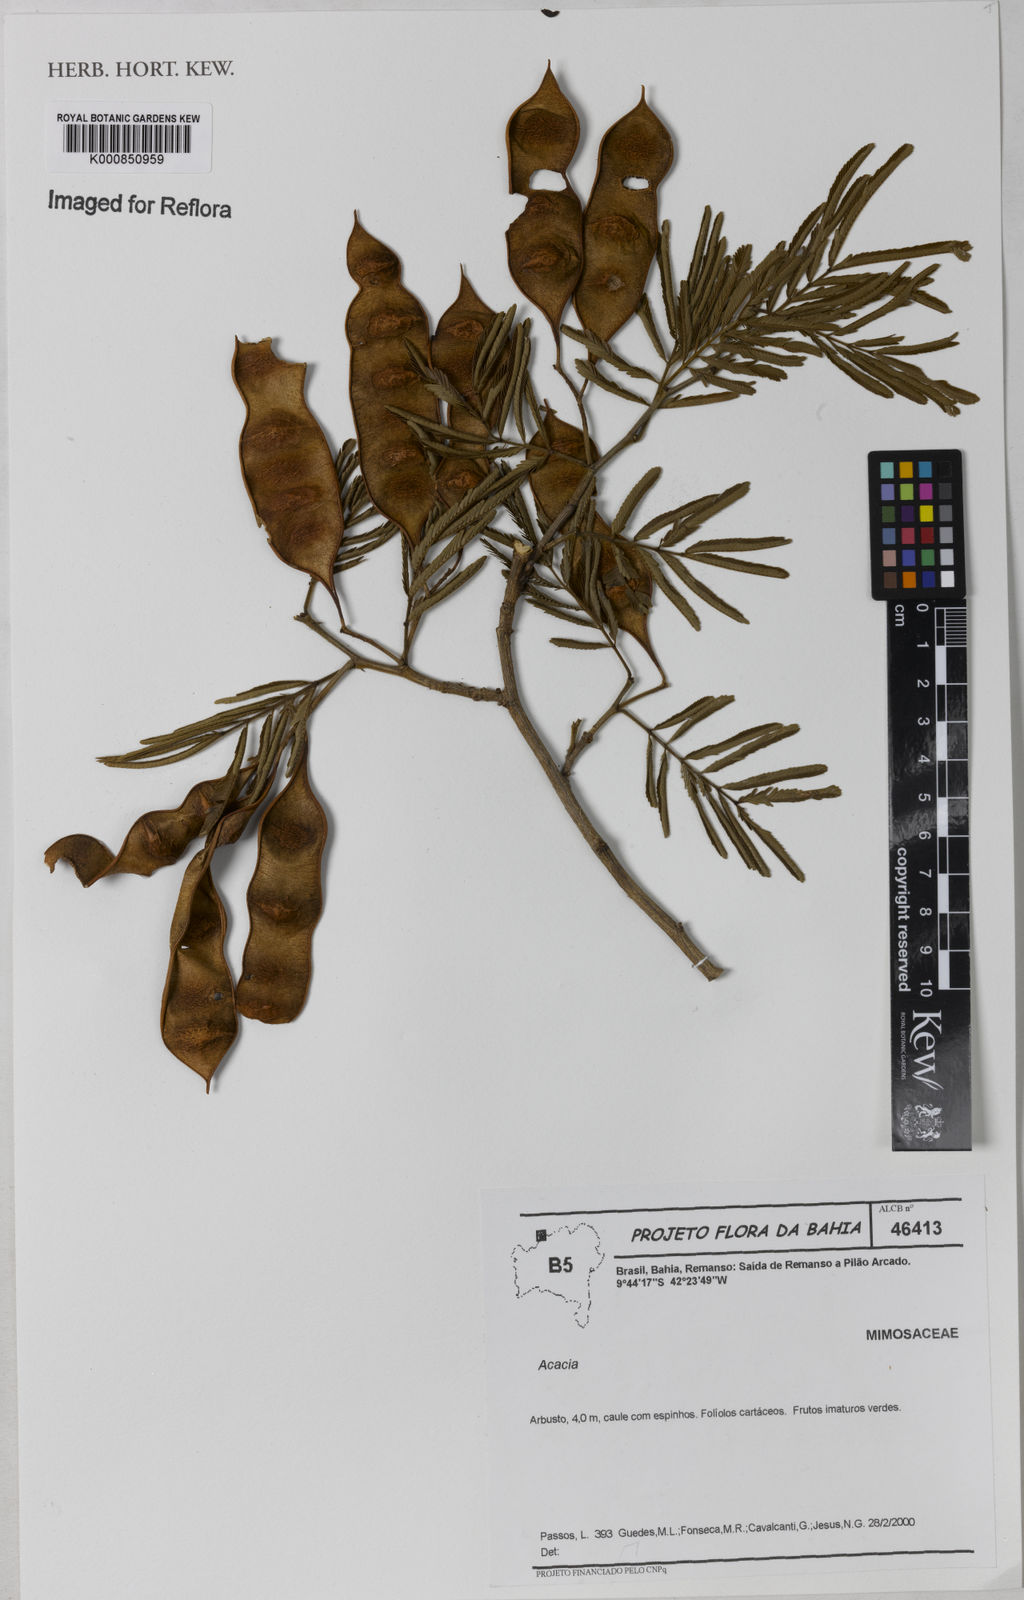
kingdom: Plantae
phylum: Tracheophyta
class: Magnoliopsida
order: Fabales
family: Fabaceae
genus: Acacia
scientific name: Acacia
